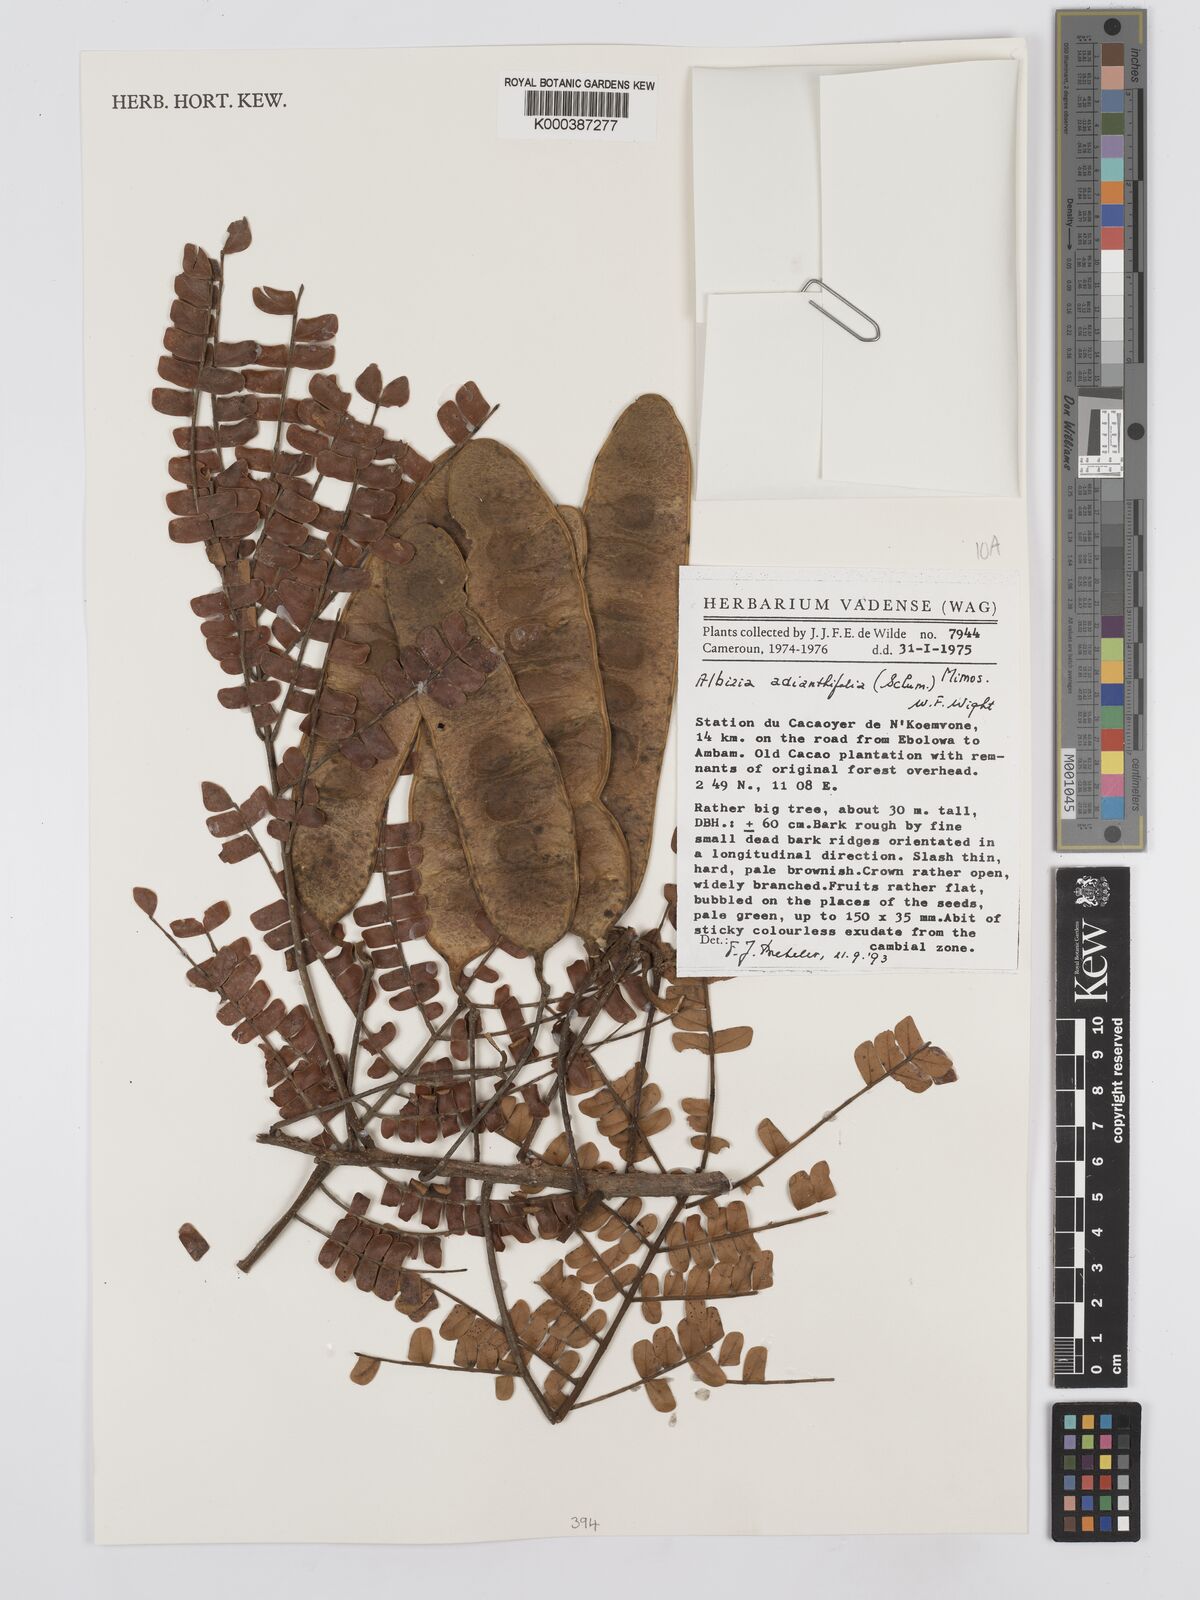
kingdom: Plantae
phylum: Tracheophyta
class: Magnoliopsida
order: Fabales
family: Fabaceae
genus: Albizia
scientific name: Albizia adianthifolia
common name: West african albizia
